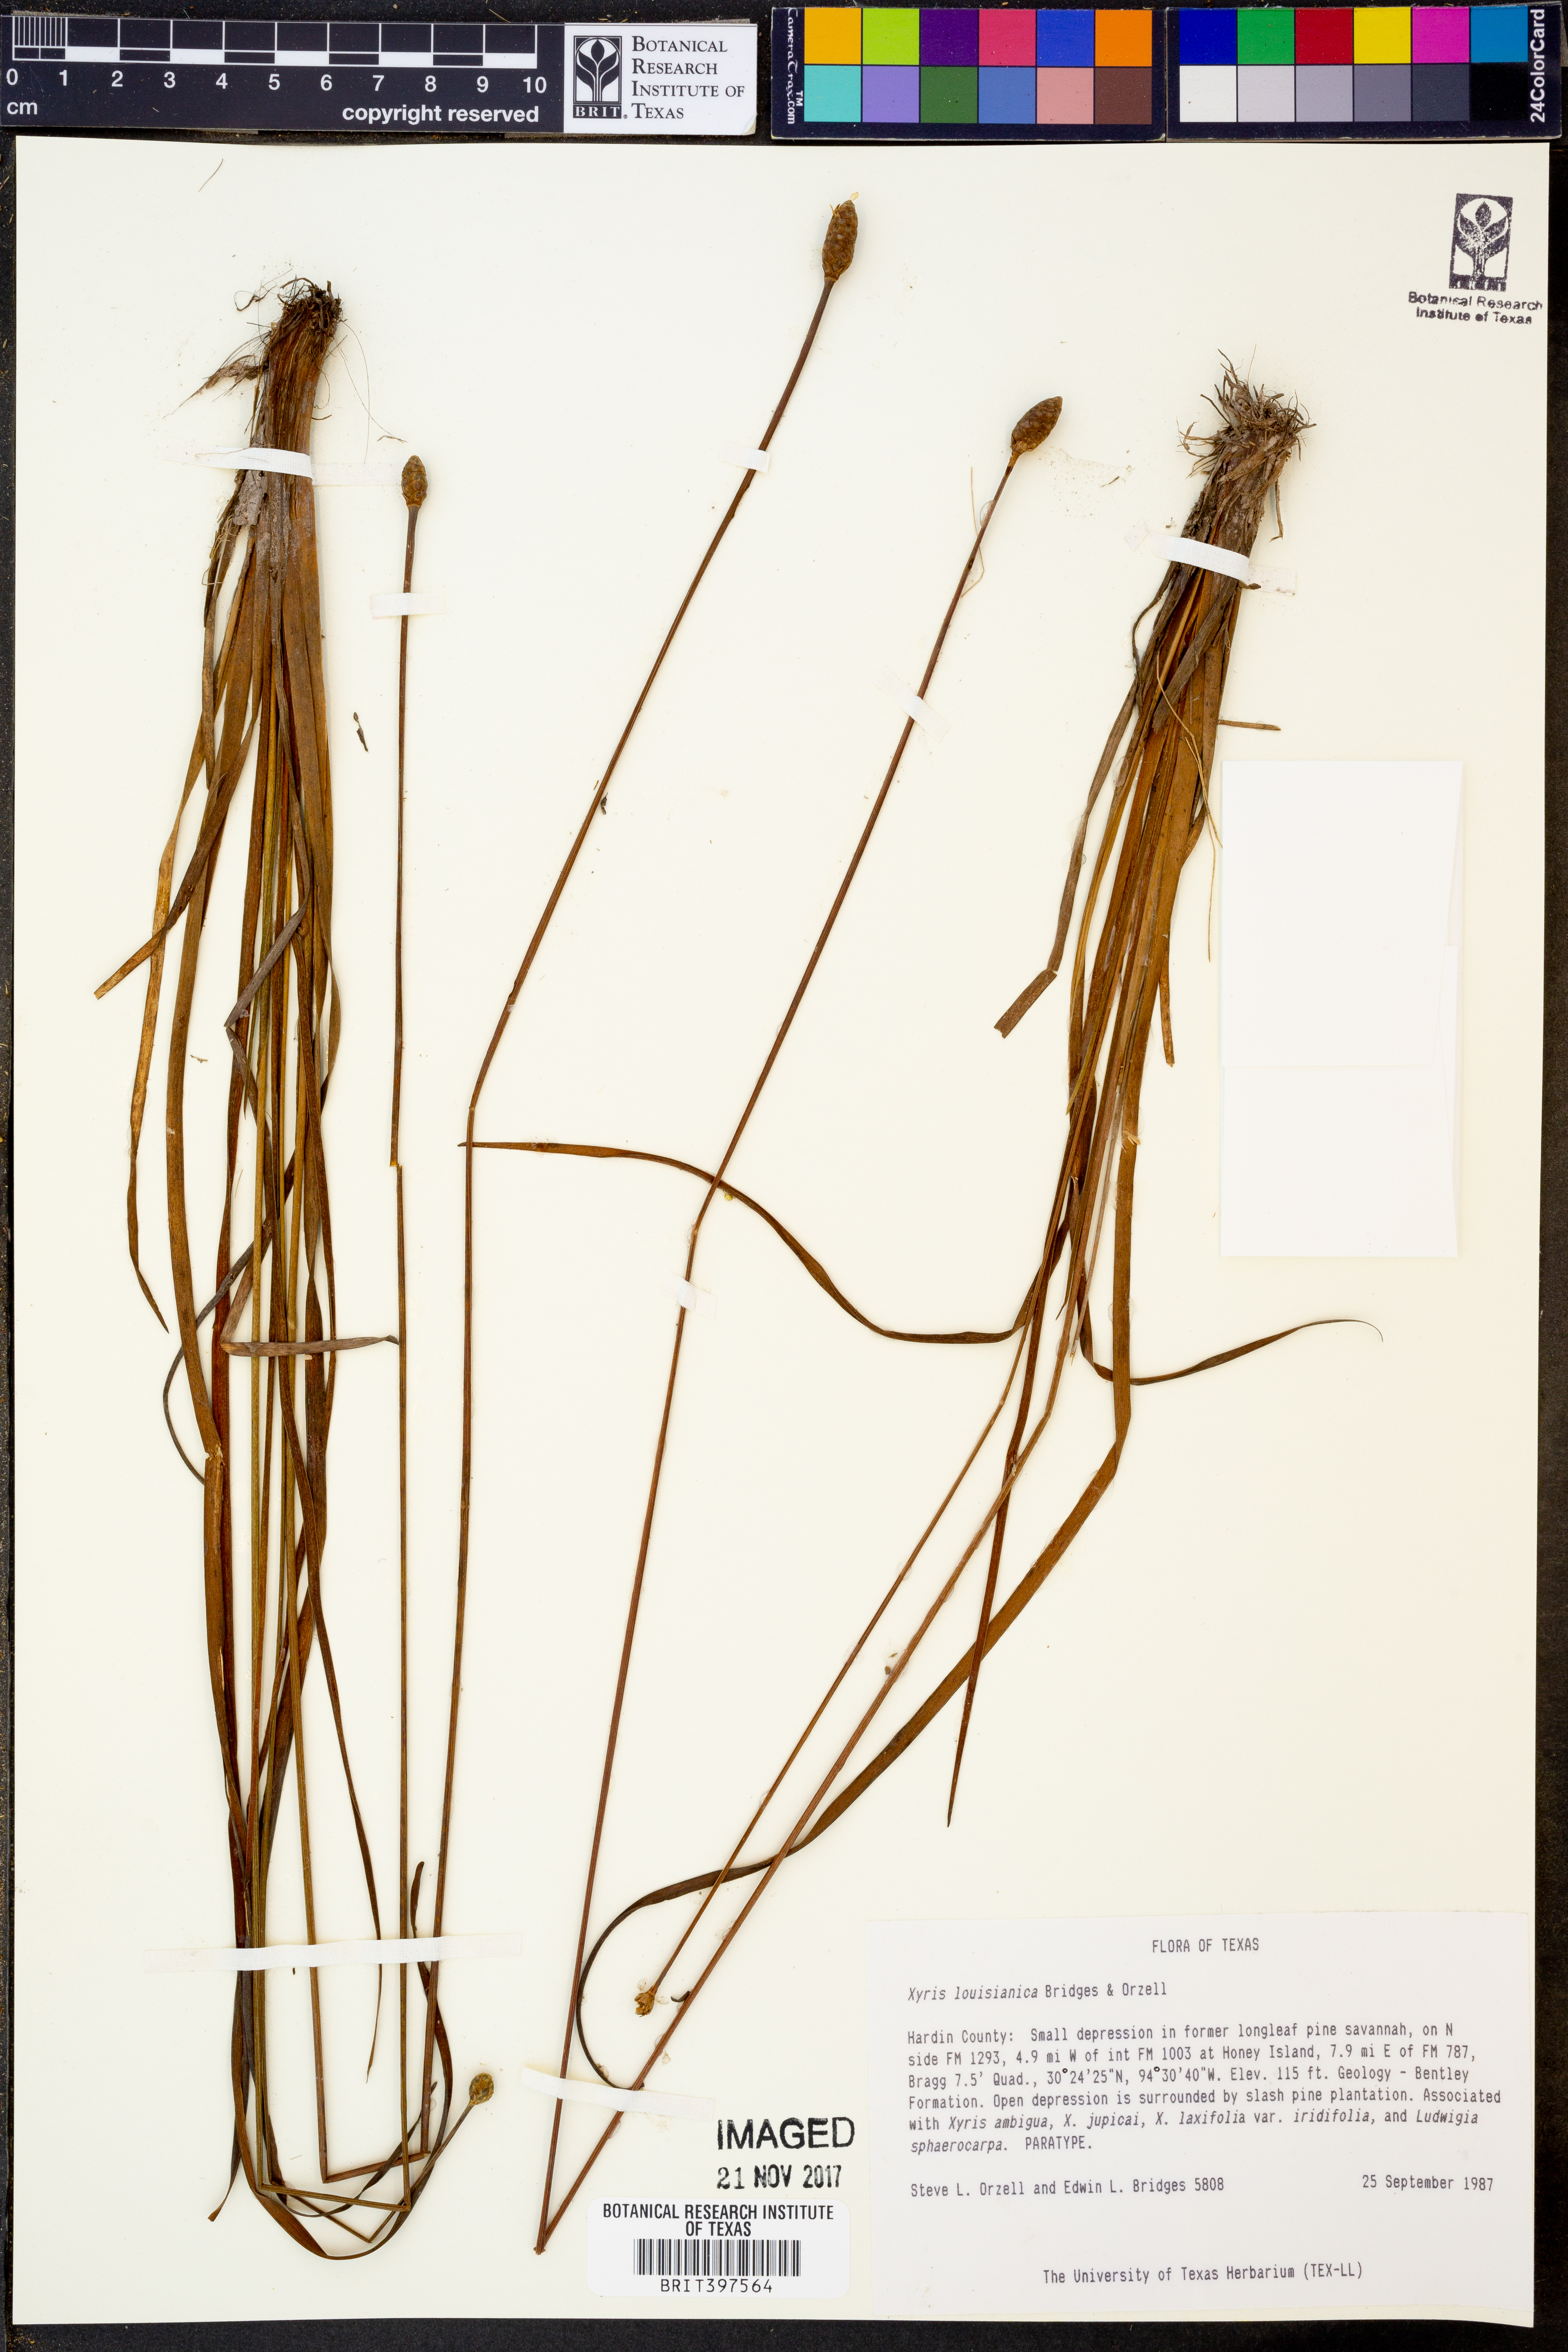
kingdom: Plantae
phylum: Tracheophyta
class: Liliopsida
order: Poales
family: Xyridaceae
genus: Xyris
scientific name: Xyris stricta
